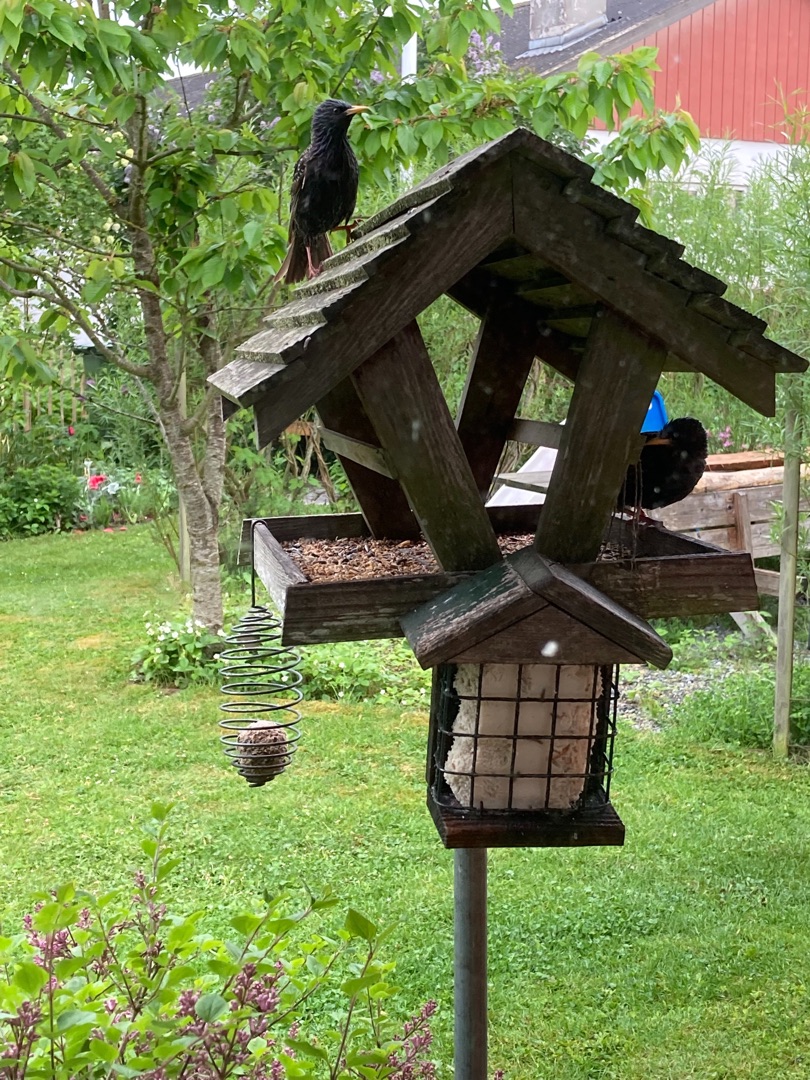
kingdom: Animalia
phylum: Chordata
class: Aves
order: Passeriformes
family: Sturnidae
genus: Sturnus
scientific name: Sturnus vulgaris
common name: Stær
